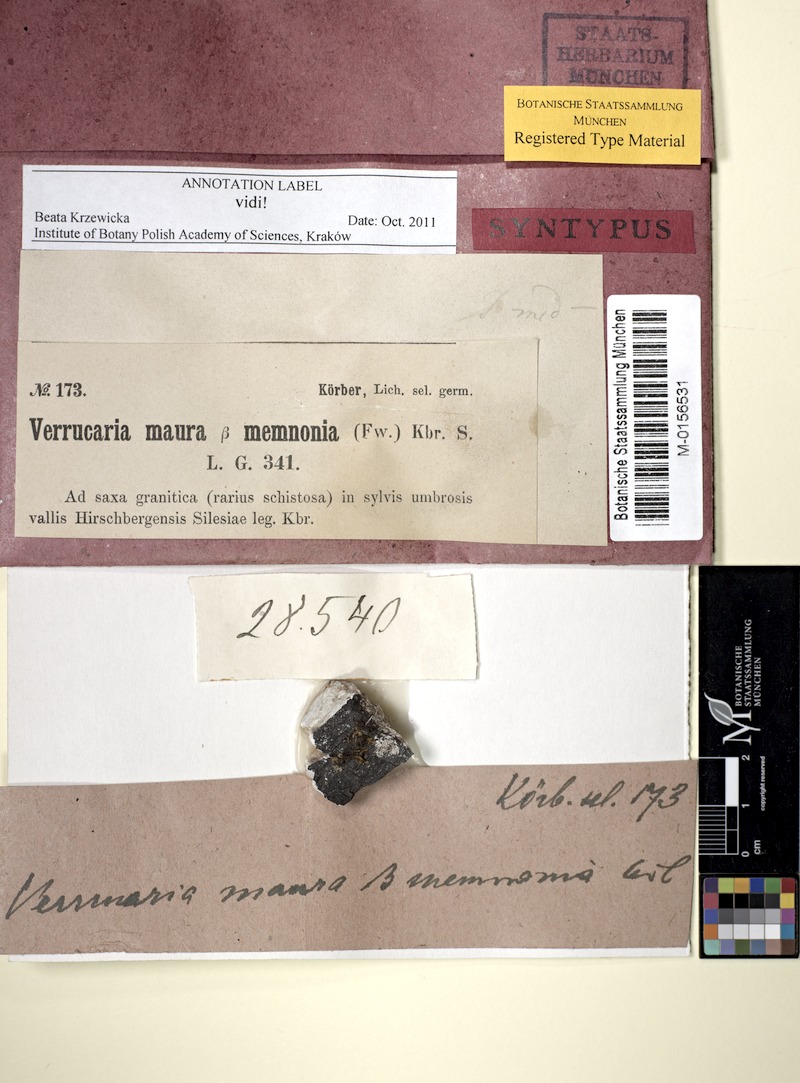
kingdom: Fungi
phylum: Ascomycota
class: Eurotiomycetes
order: Verrucariales
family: Verrucariaceae
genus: Verrucaria
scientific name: Verrucaria aquatilis
